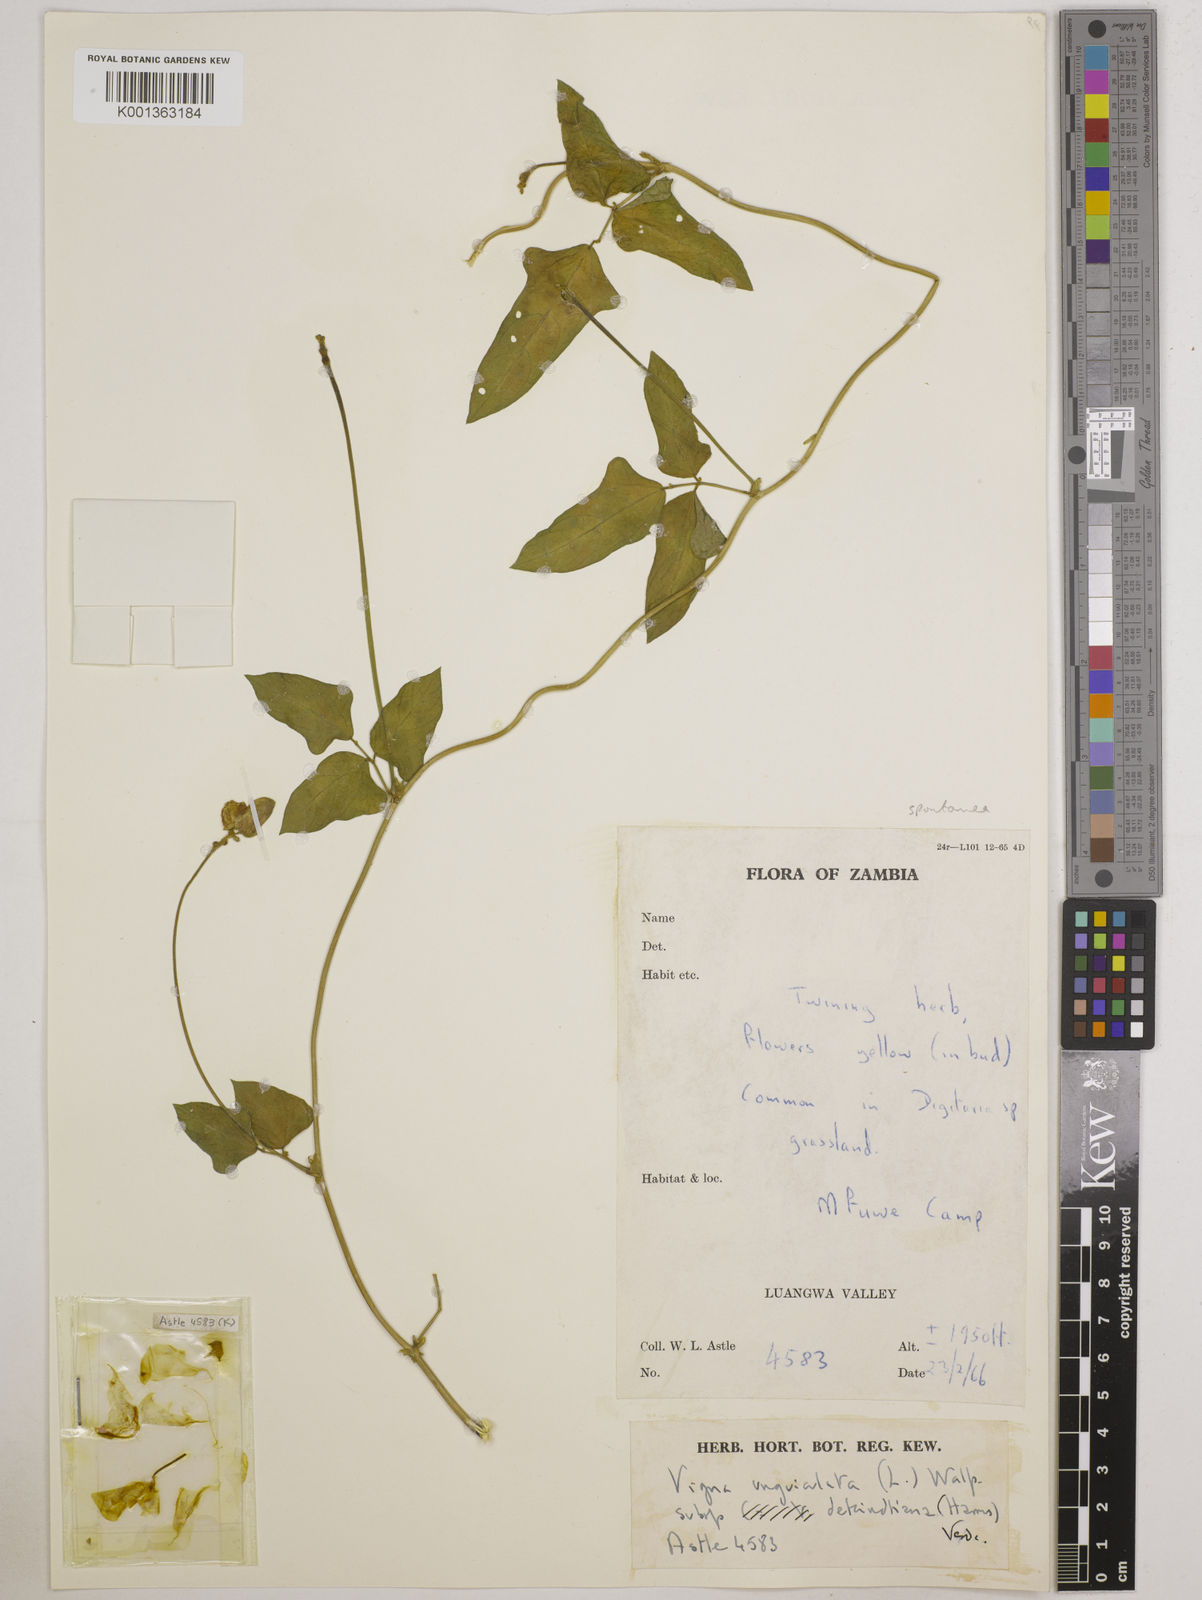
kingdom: Plantae
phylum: Tracheophyta
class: Magnoliopsida
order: Fabales
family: Fabaceae
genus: Vigna
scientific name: Vigna unguiculata
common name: Cowpea
